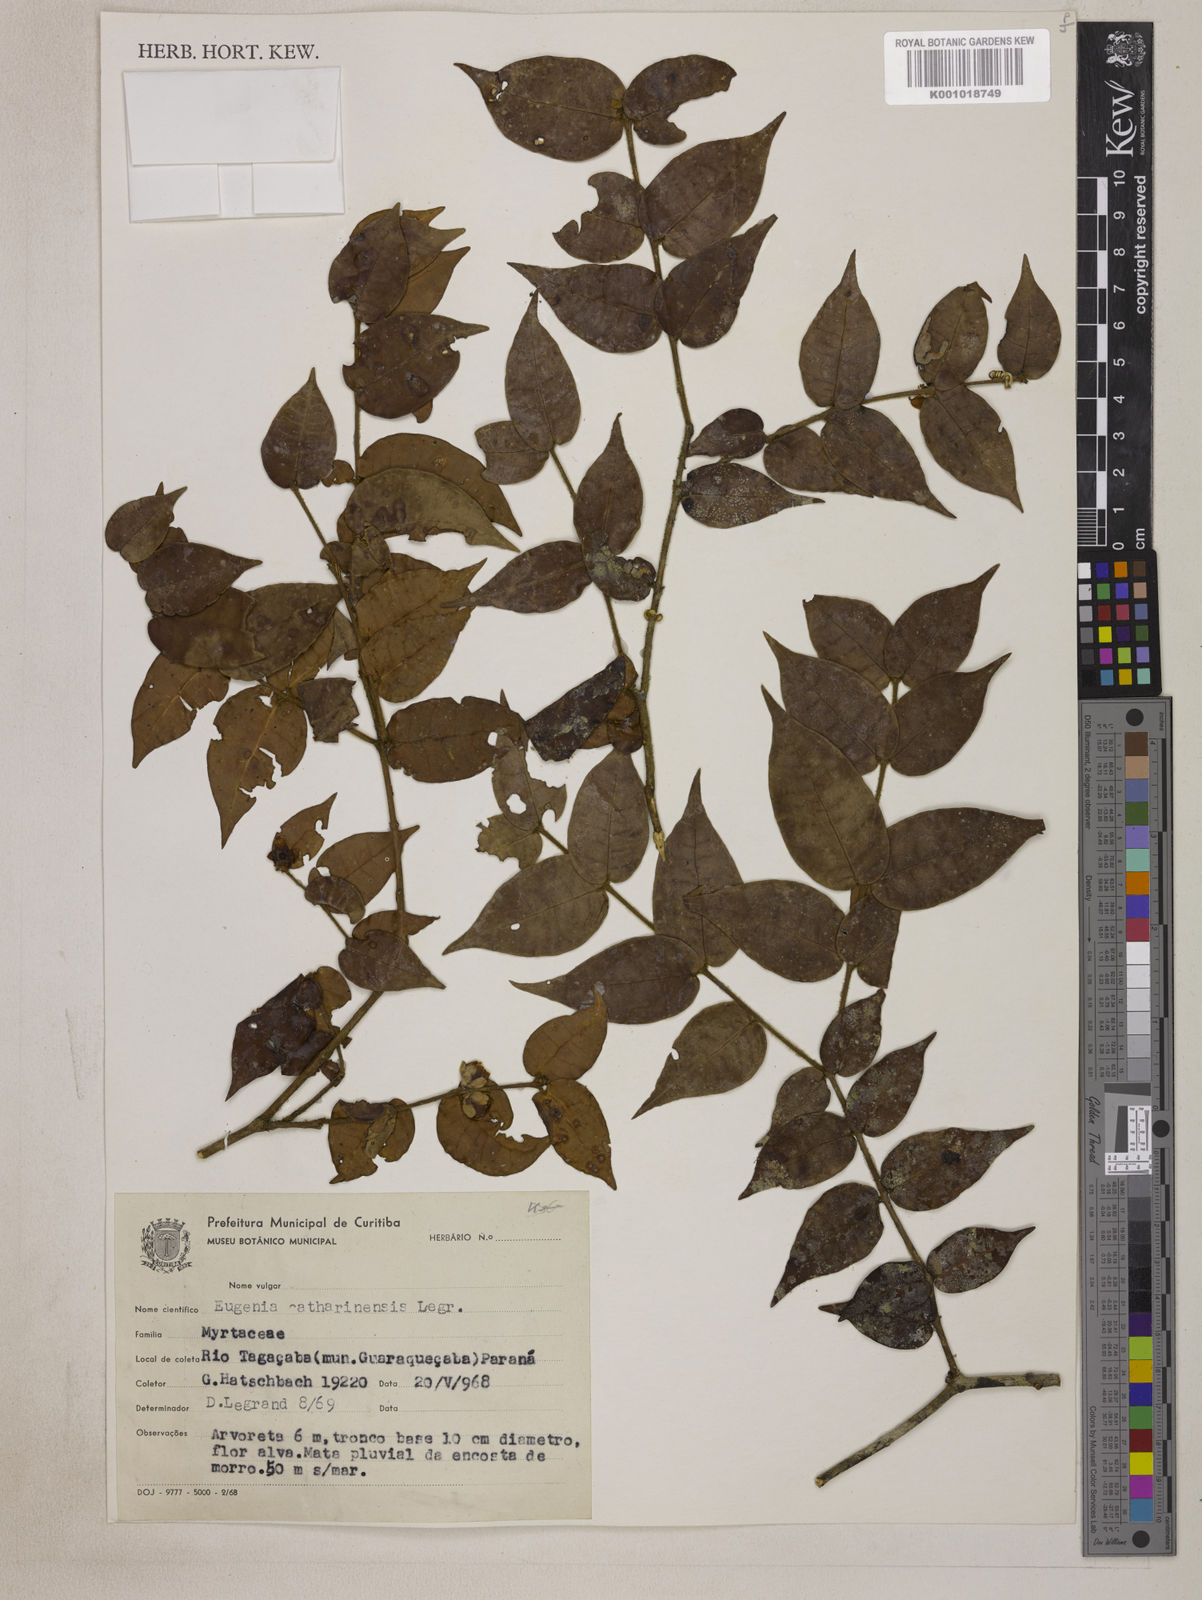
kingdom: Plantae
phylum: Tracheophyta
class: Magnoliopsida
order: Myrtales
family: Myrtaceae
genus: Eugenia
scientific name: Eugenia catharinensis
